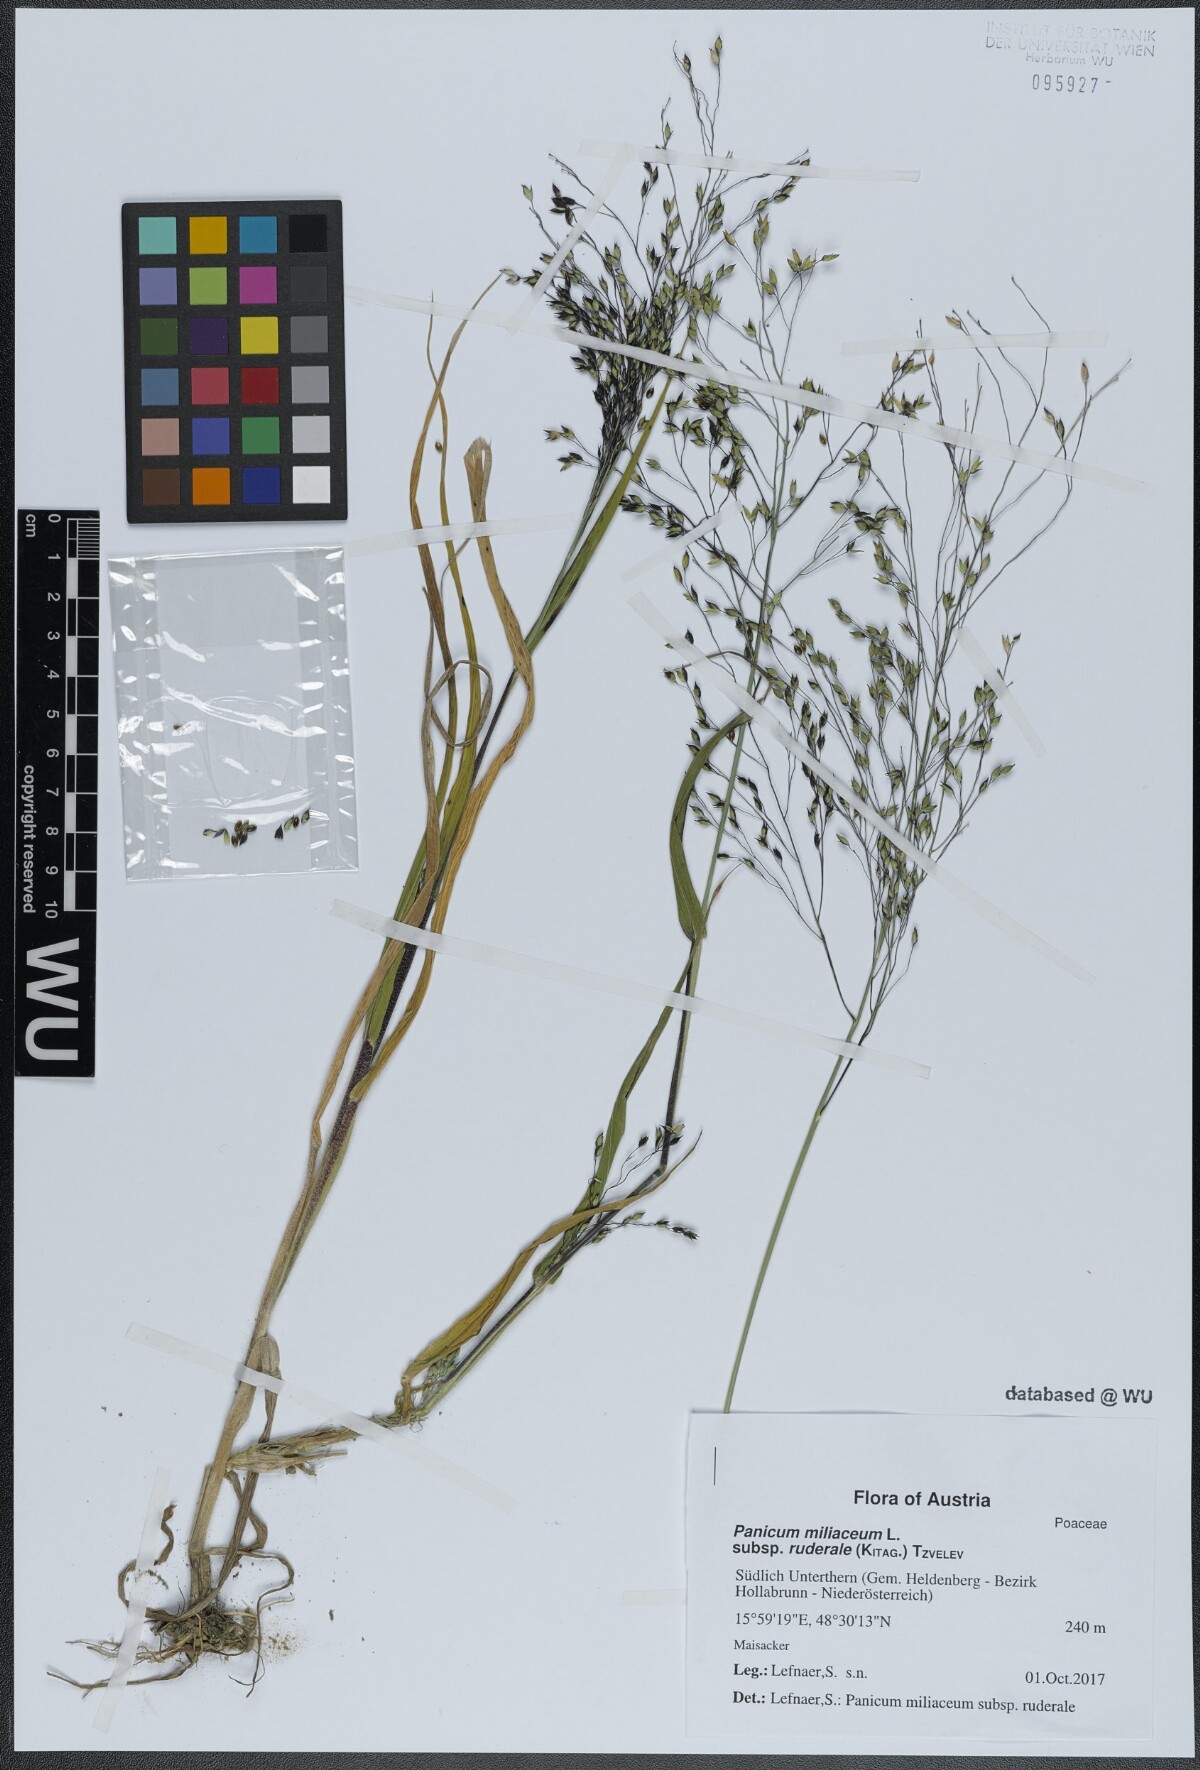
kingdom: Plantae
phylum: Tracheophyta
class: Liliopsida
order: Poales
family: Poaceae
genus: Panicum
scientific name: Panicum miliaceum
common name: Common millet
